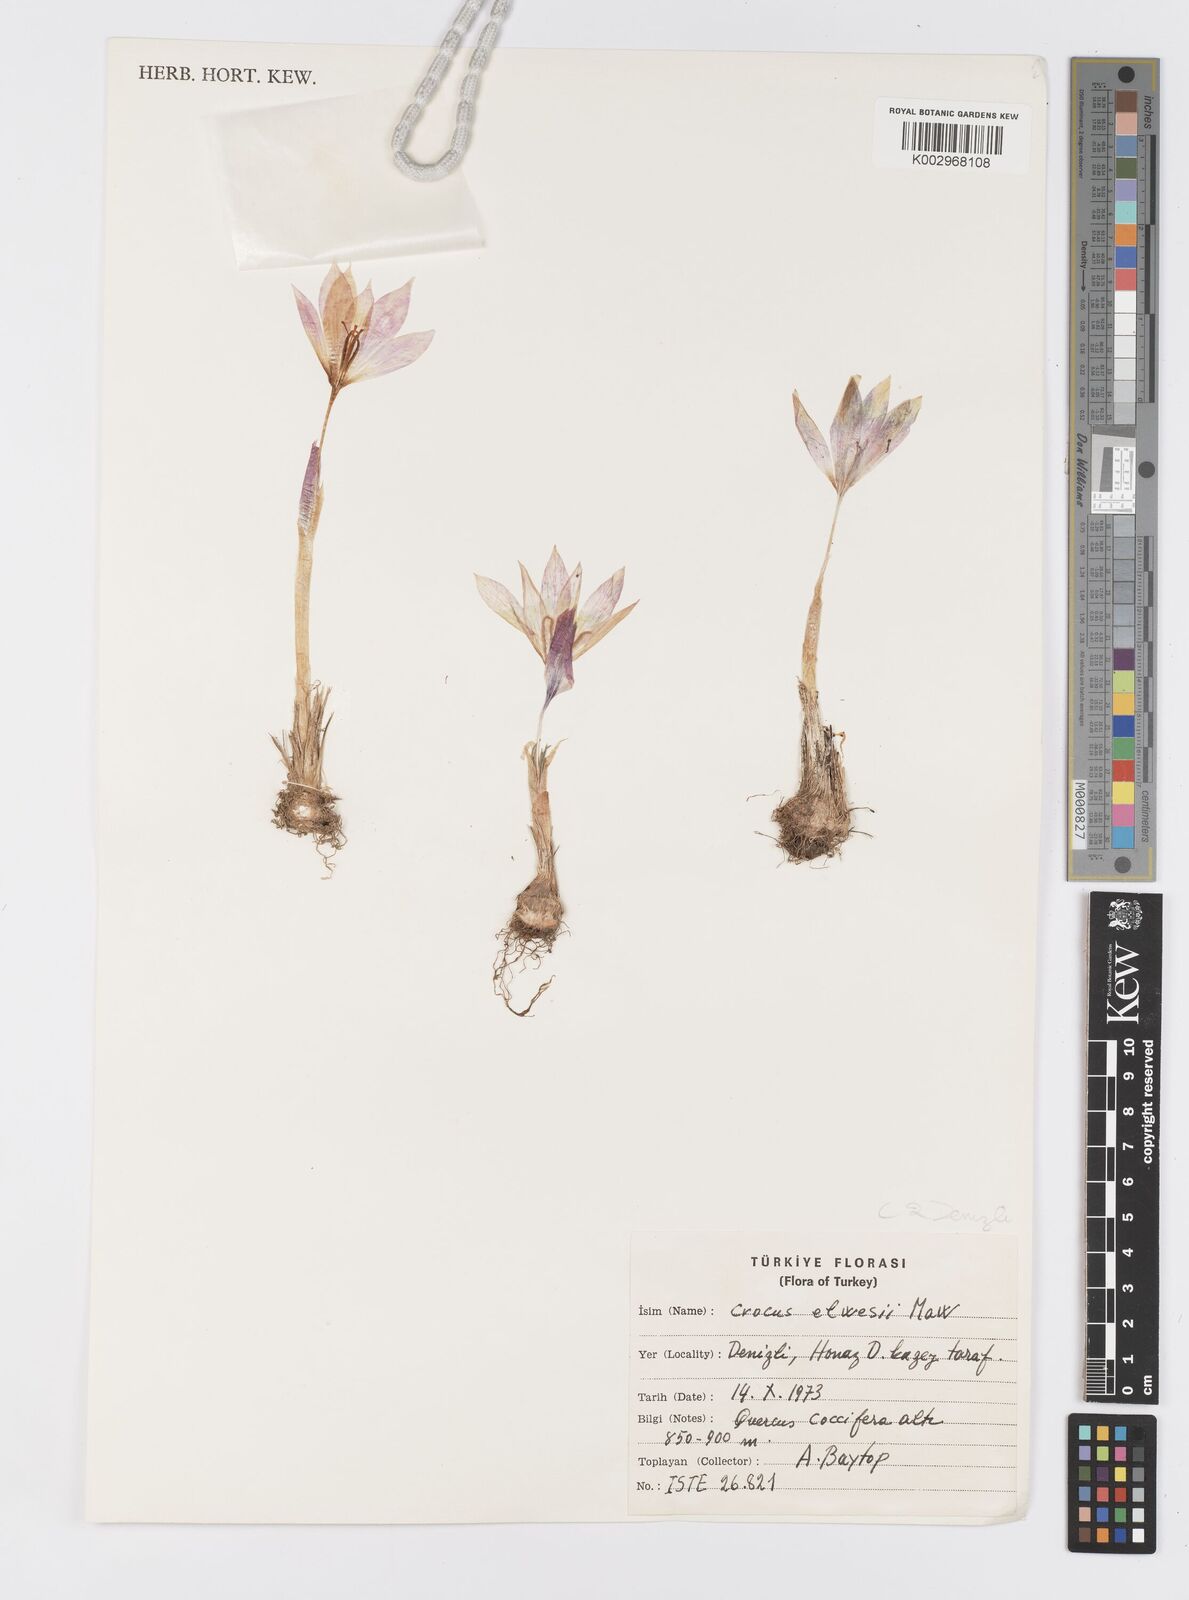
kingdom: Plantae
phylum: Tracheophyta
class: Liliopsida
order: Asparagales
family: Iridaceae
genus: Crocus
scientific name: Crocus
